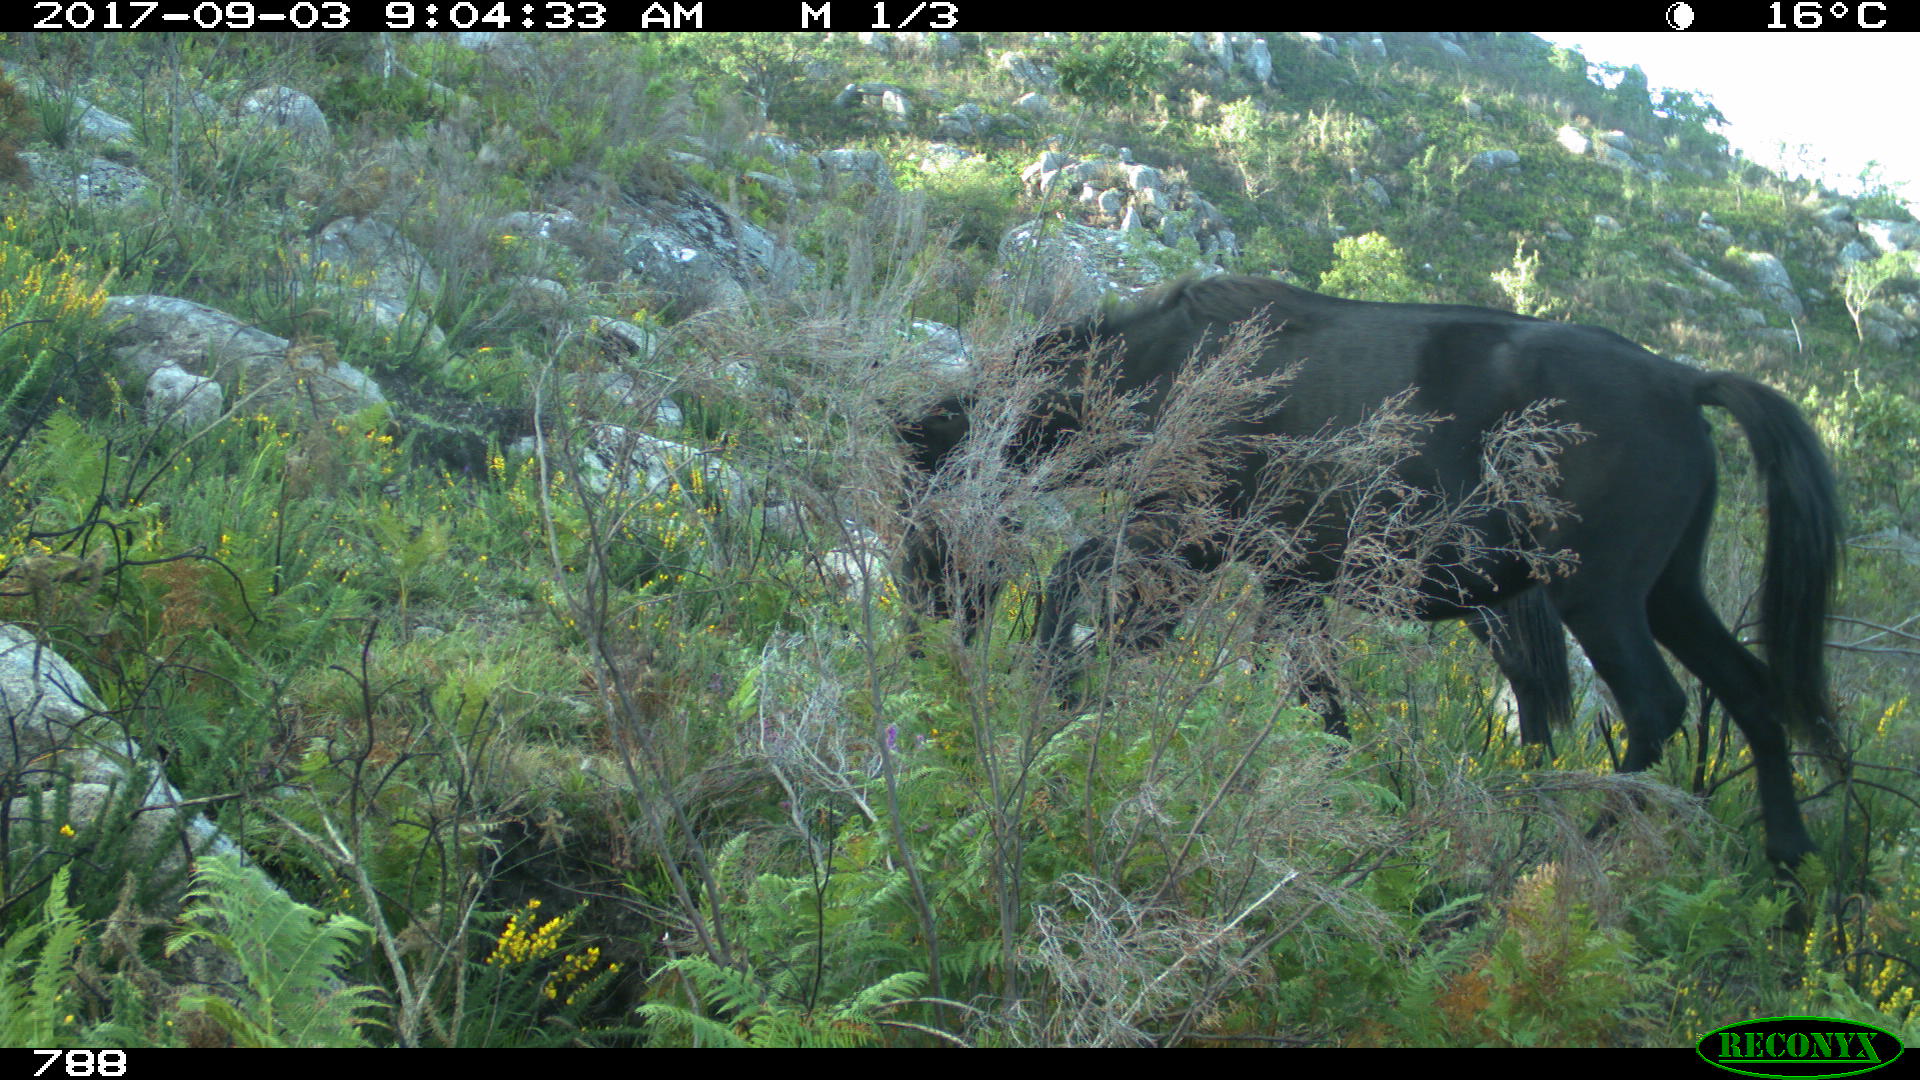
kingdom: Animalia
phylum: Chordata
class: Mammalia
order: Perissodactyla
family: Equidae
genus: Equus
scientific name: Equus caballus
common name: Horse
